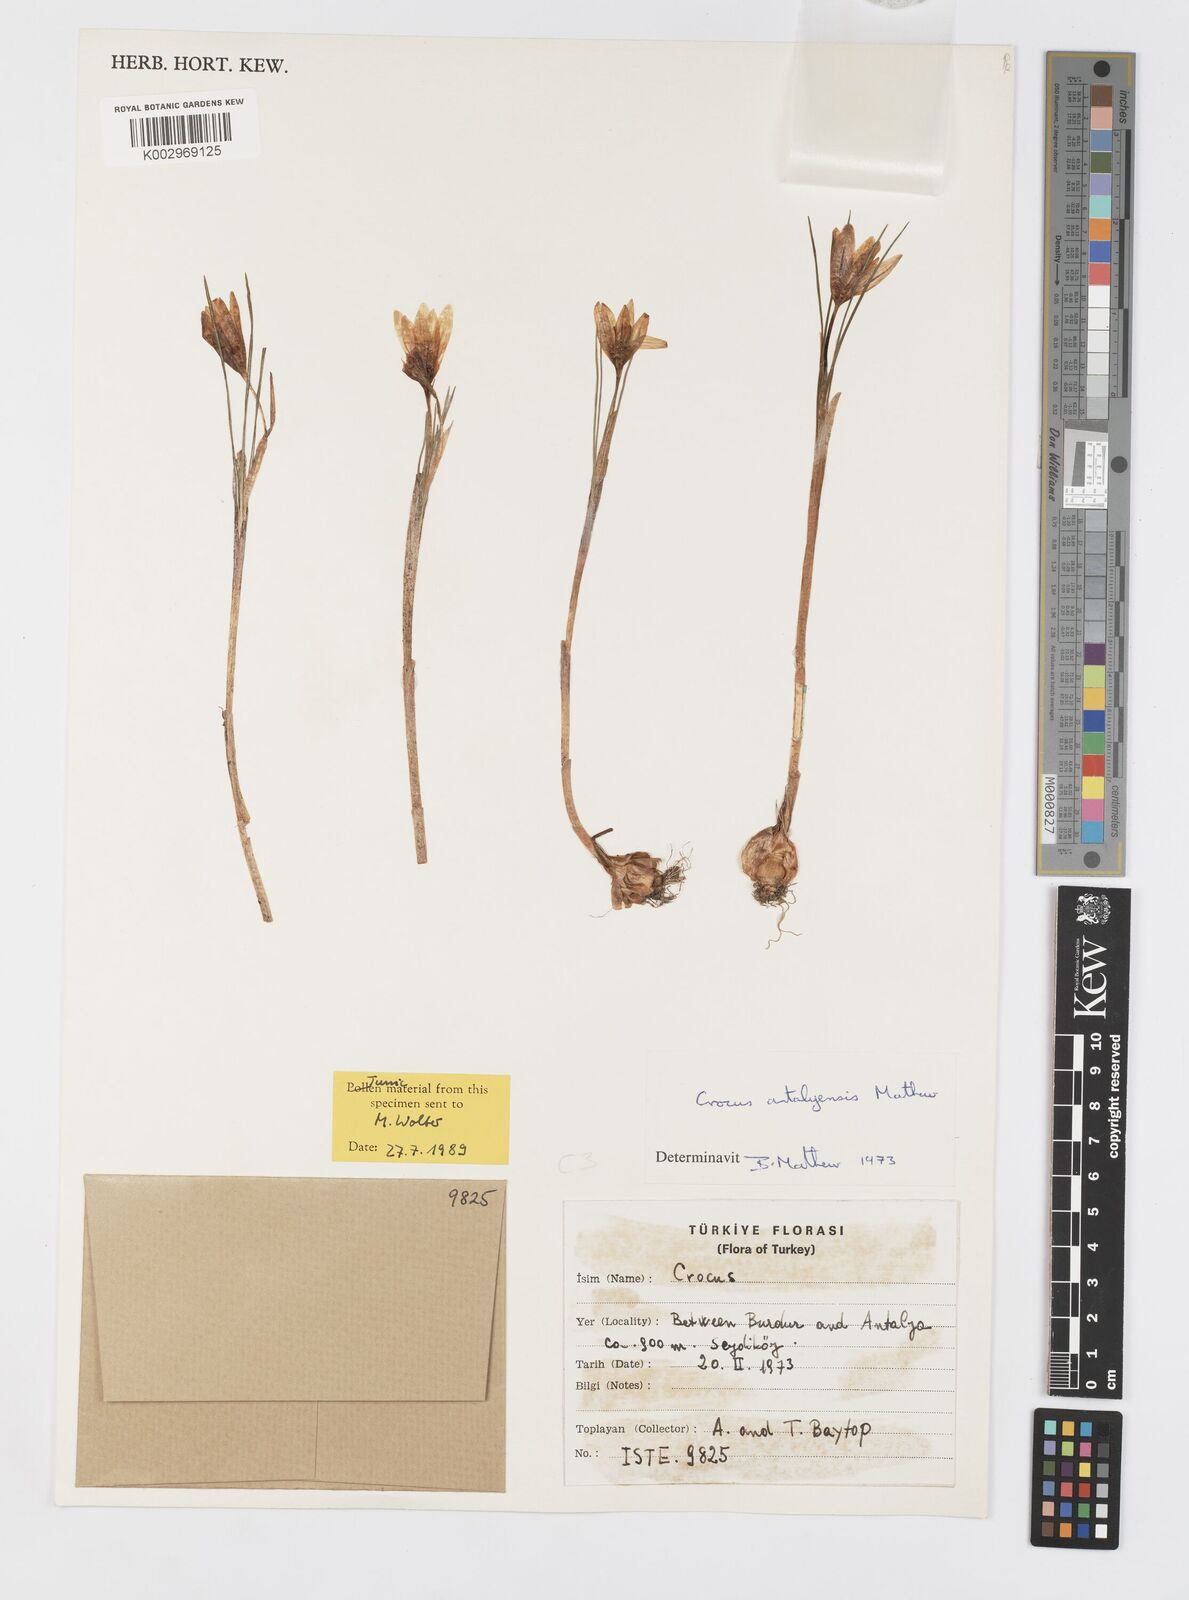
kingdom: Plantae
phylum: Tracheophyta
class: Liliopsida
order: Asparagales
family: Iridaceae
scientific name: Iridaceae
